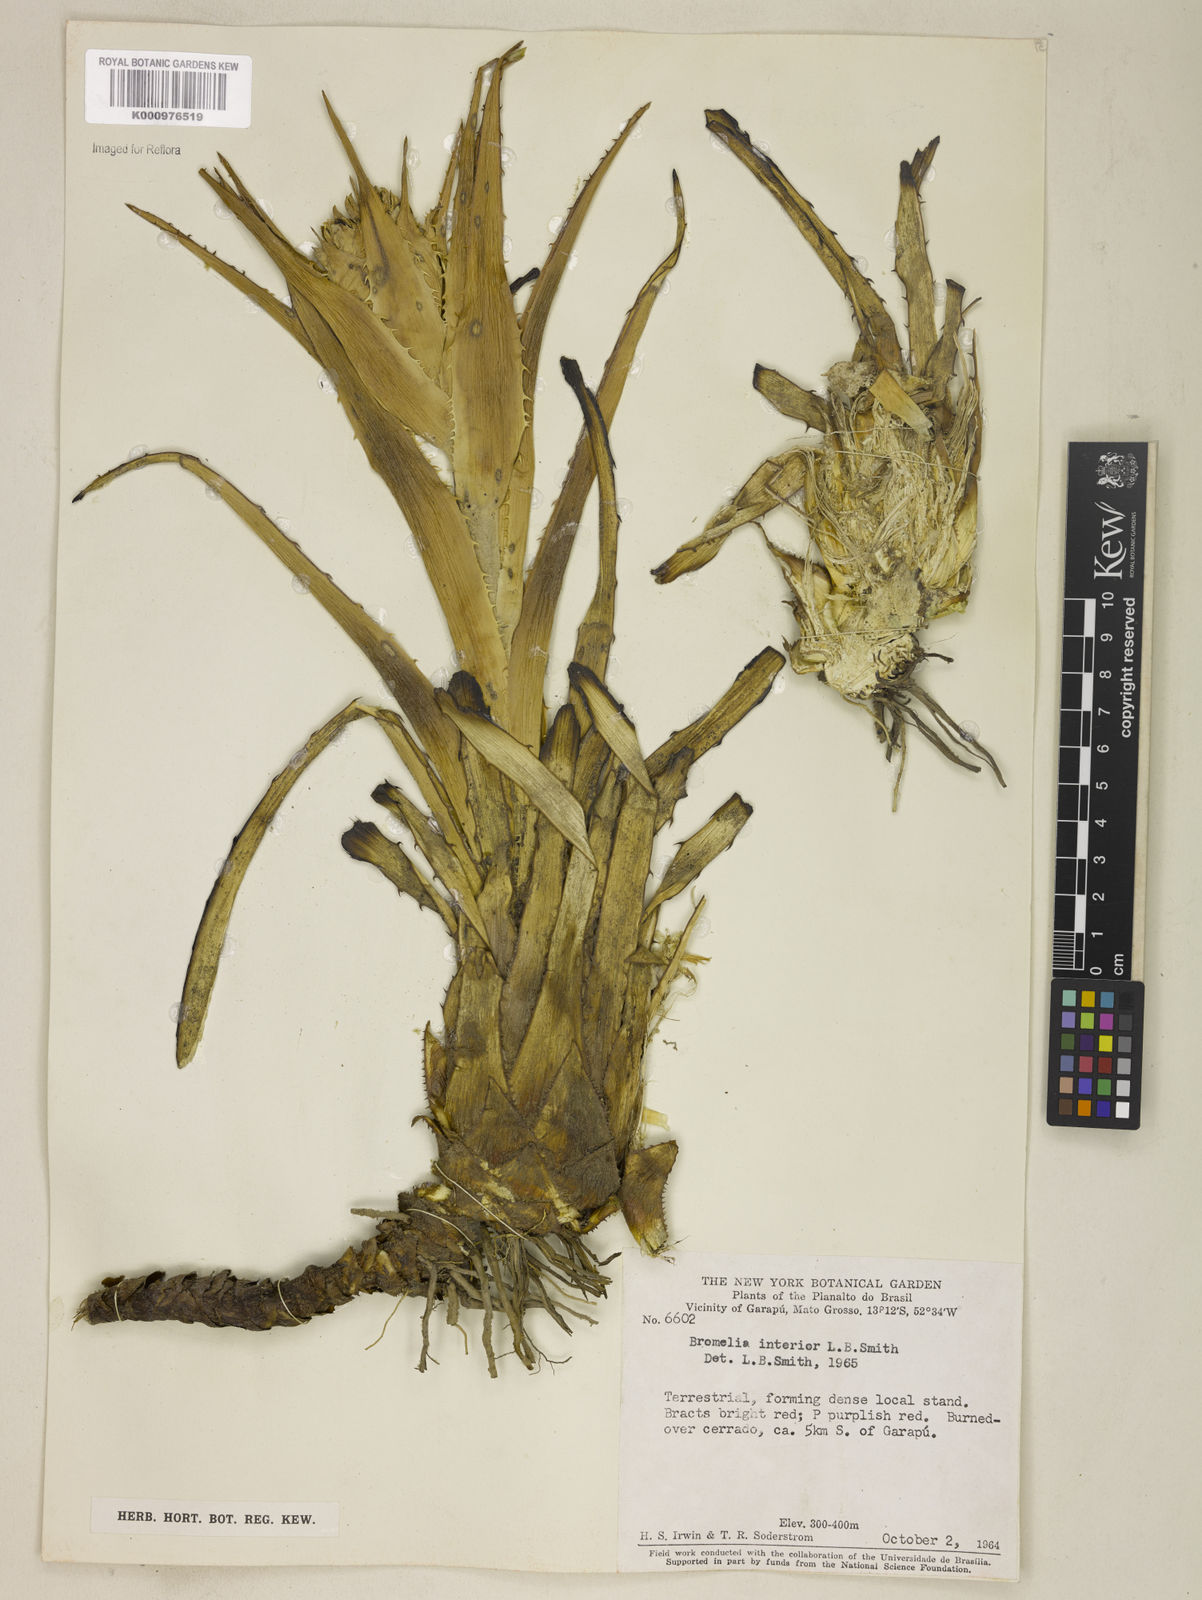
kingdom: Plantae
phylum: Tracheophyta
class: Liliopsida
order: Poales
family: Bromeliaceae
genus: Bromelia
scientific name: Bromelia interior
